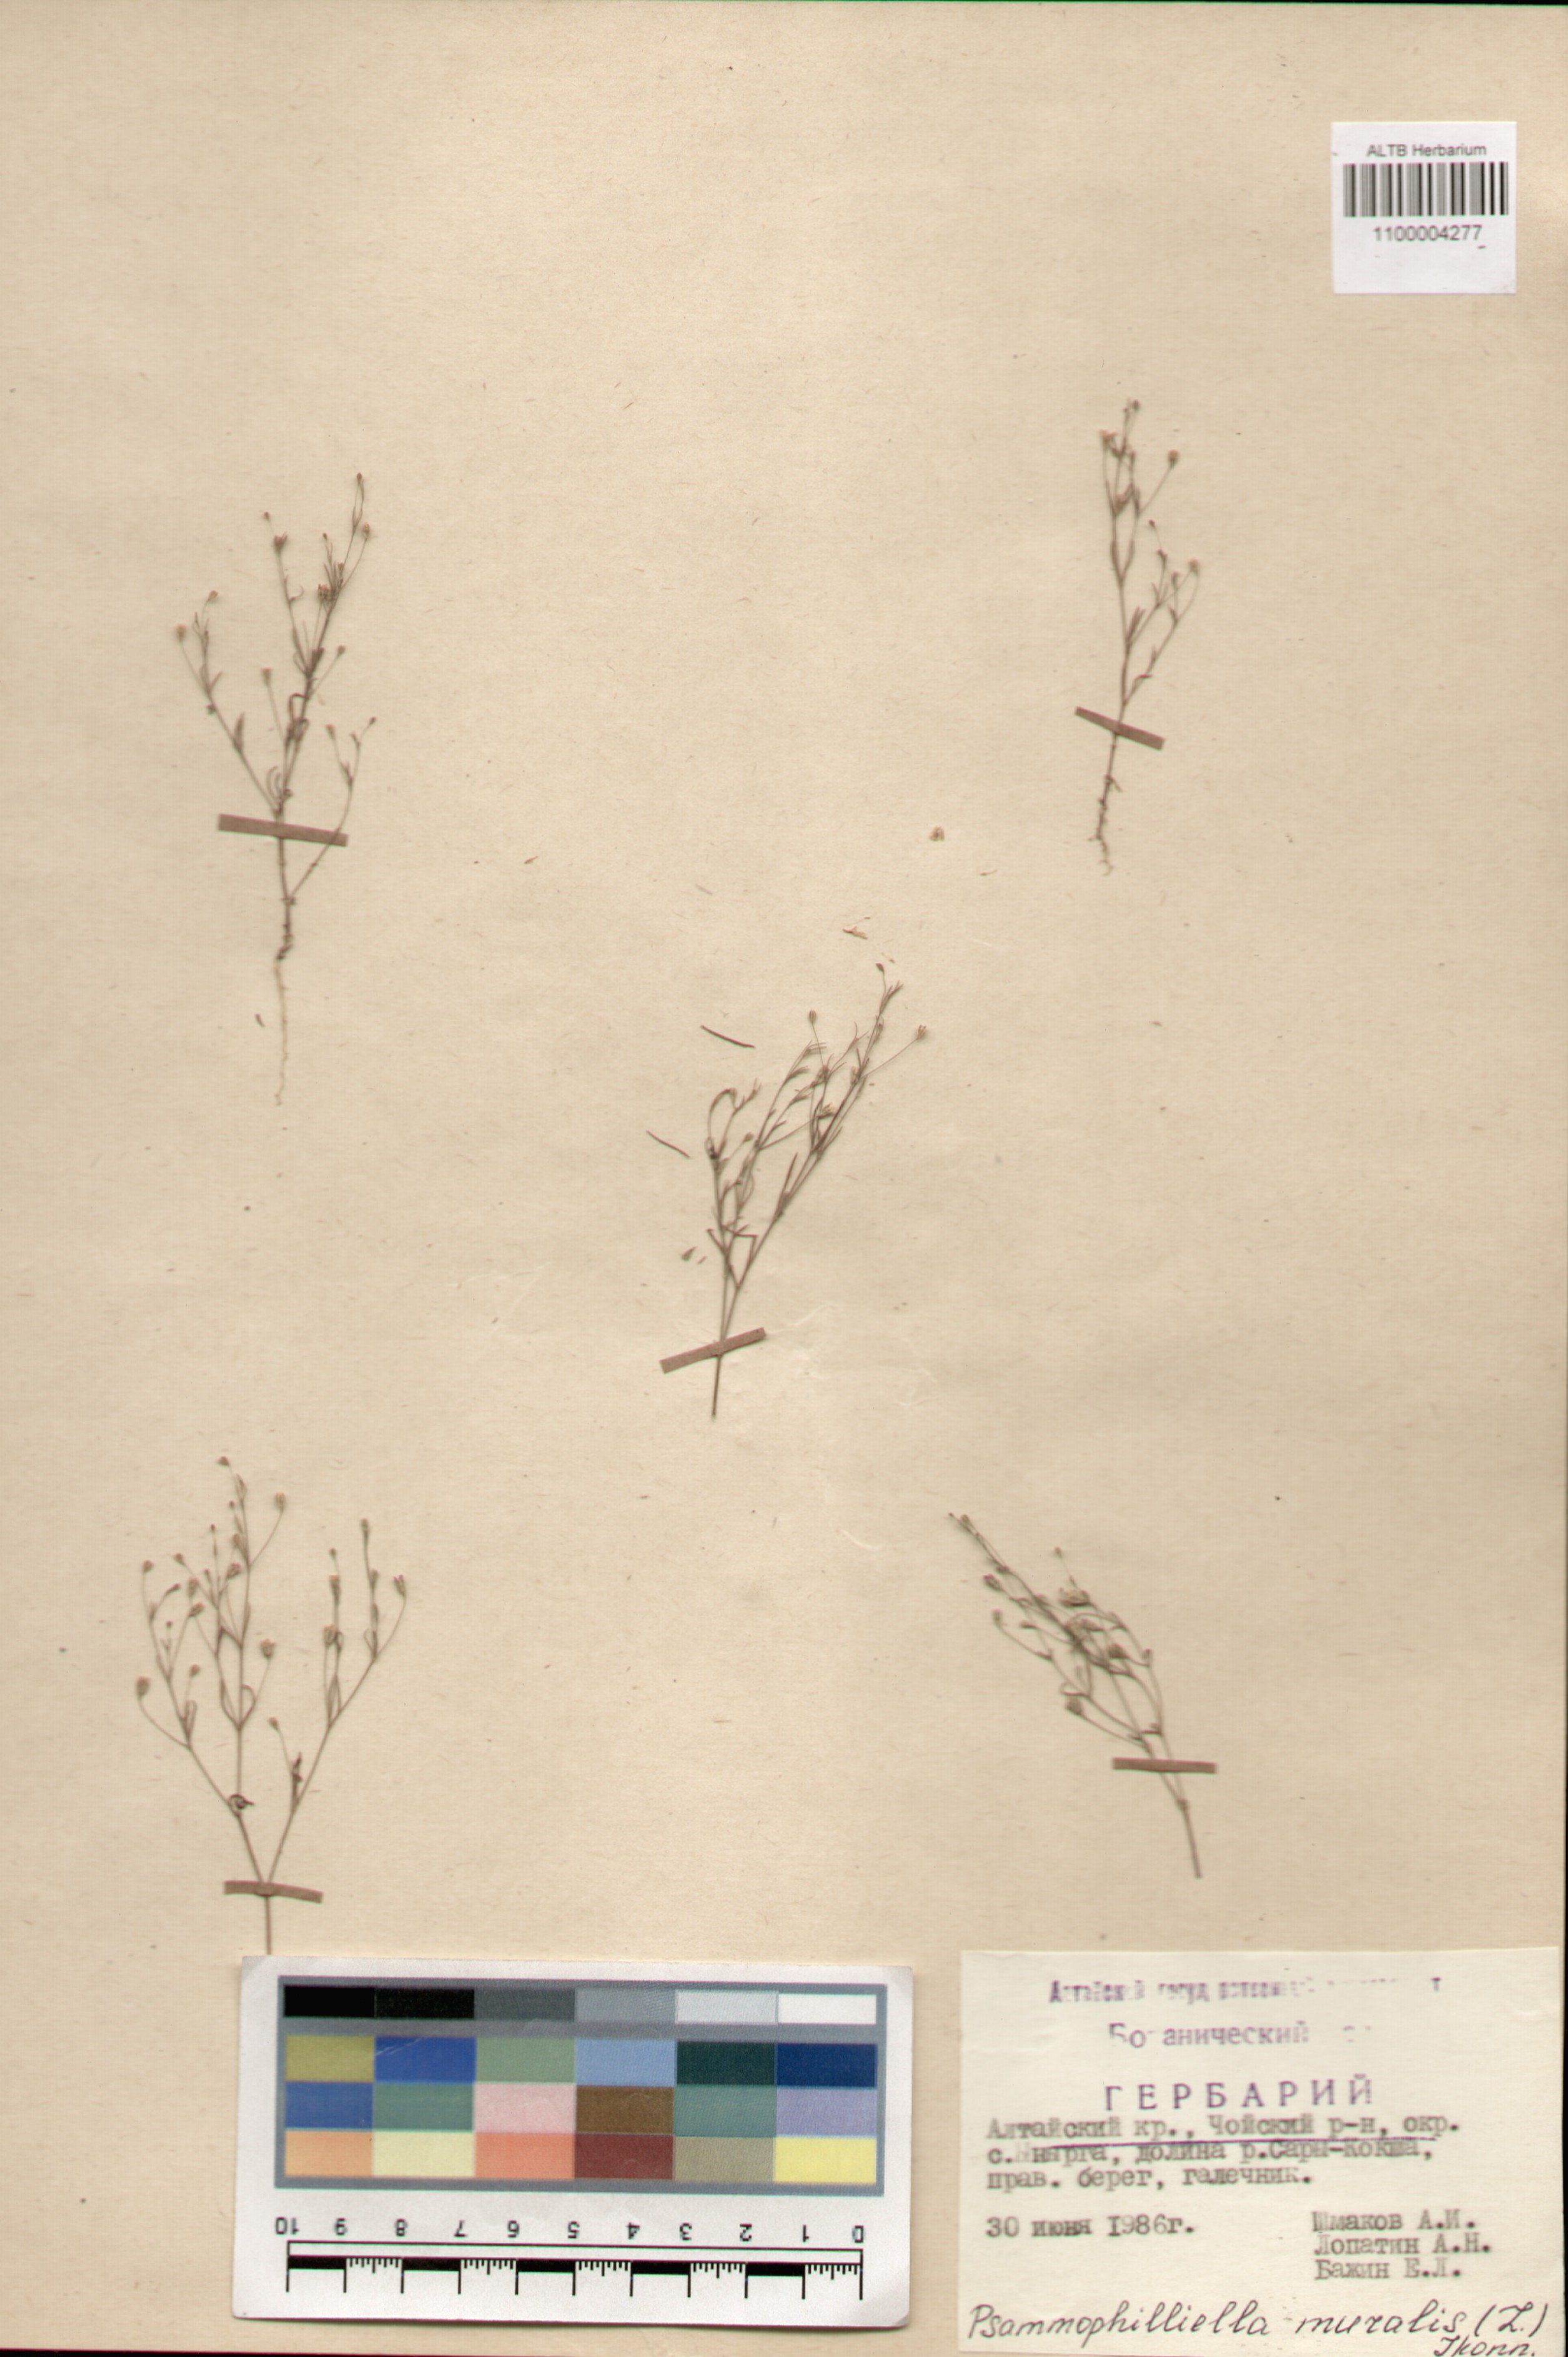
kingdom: Plantae
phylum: Tracheophyta
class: Magnoliopsida
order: Caryophyllales
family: Caryophyllaceae
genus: Psammophiliella
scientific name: Psammophiliella muralis
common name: Cushion baby's-breath
